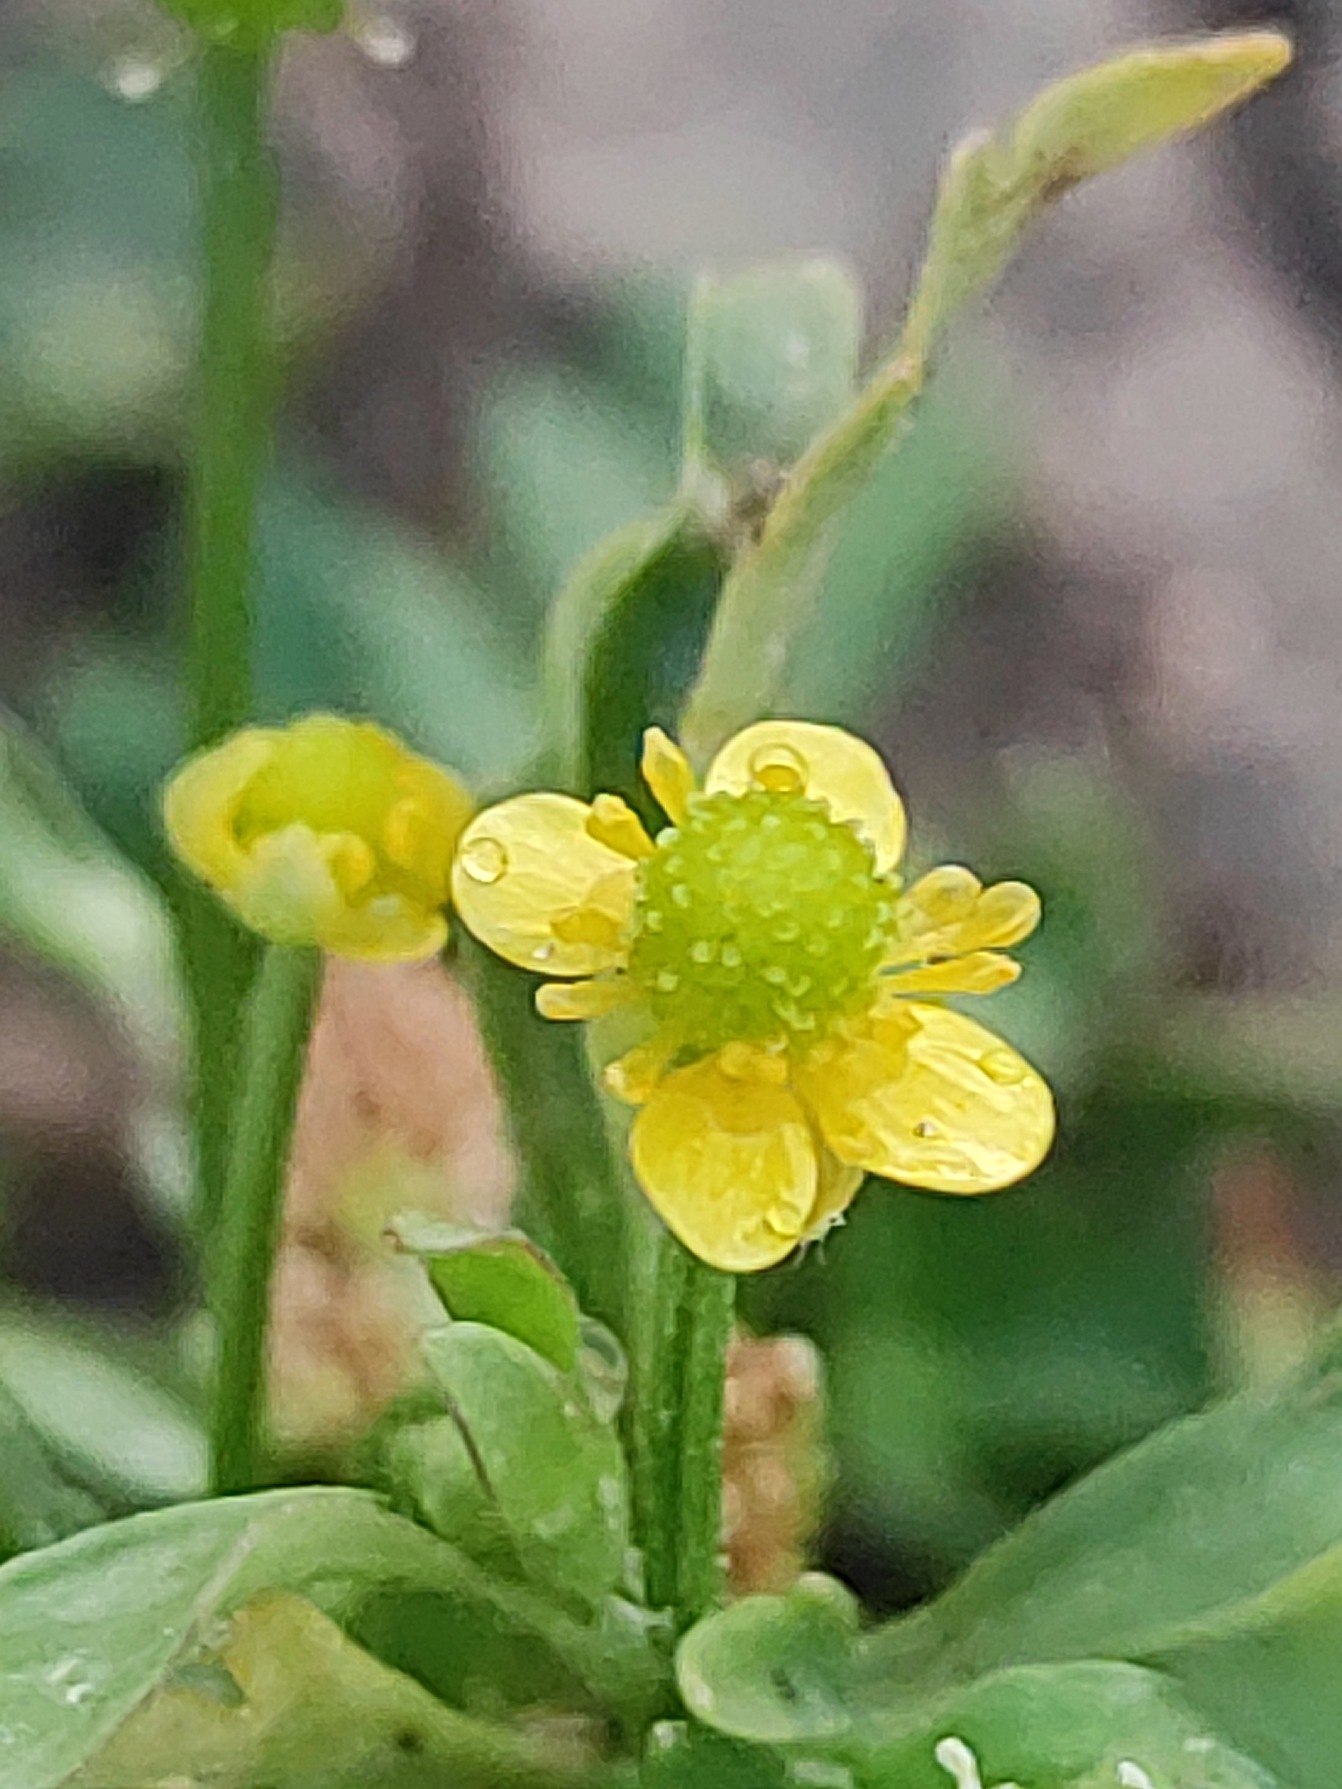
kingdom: Plantae
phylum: Tracheophyta
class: Magnoliopsida
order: Ranunculales
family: Ranunculaceae
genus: Ranunculus
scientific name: Ranunculus sceleratus
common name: Tigger-ranunkel
